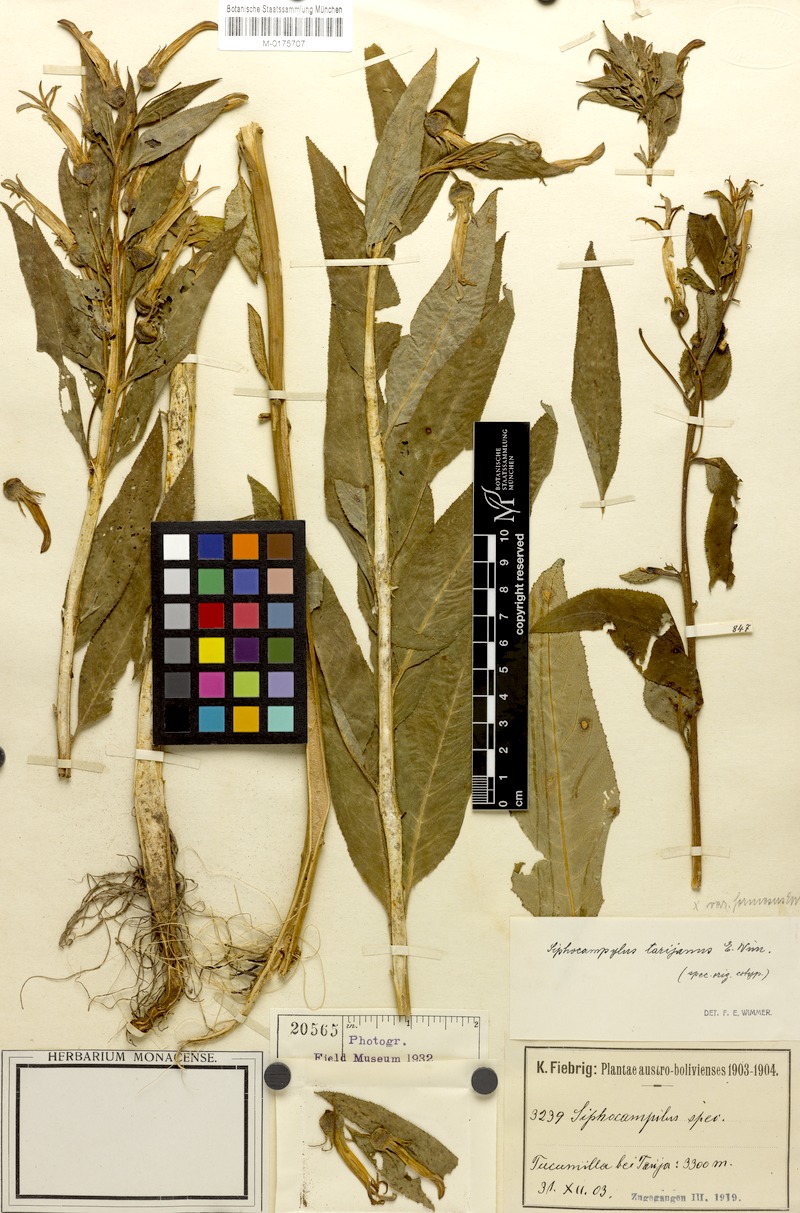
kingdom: Plantae
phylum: Tracheophyta
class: Magnoliopsida
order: Asterales
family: Campanulaceae
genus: Siphocampylus
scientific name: Siphocampylus nemoralis
